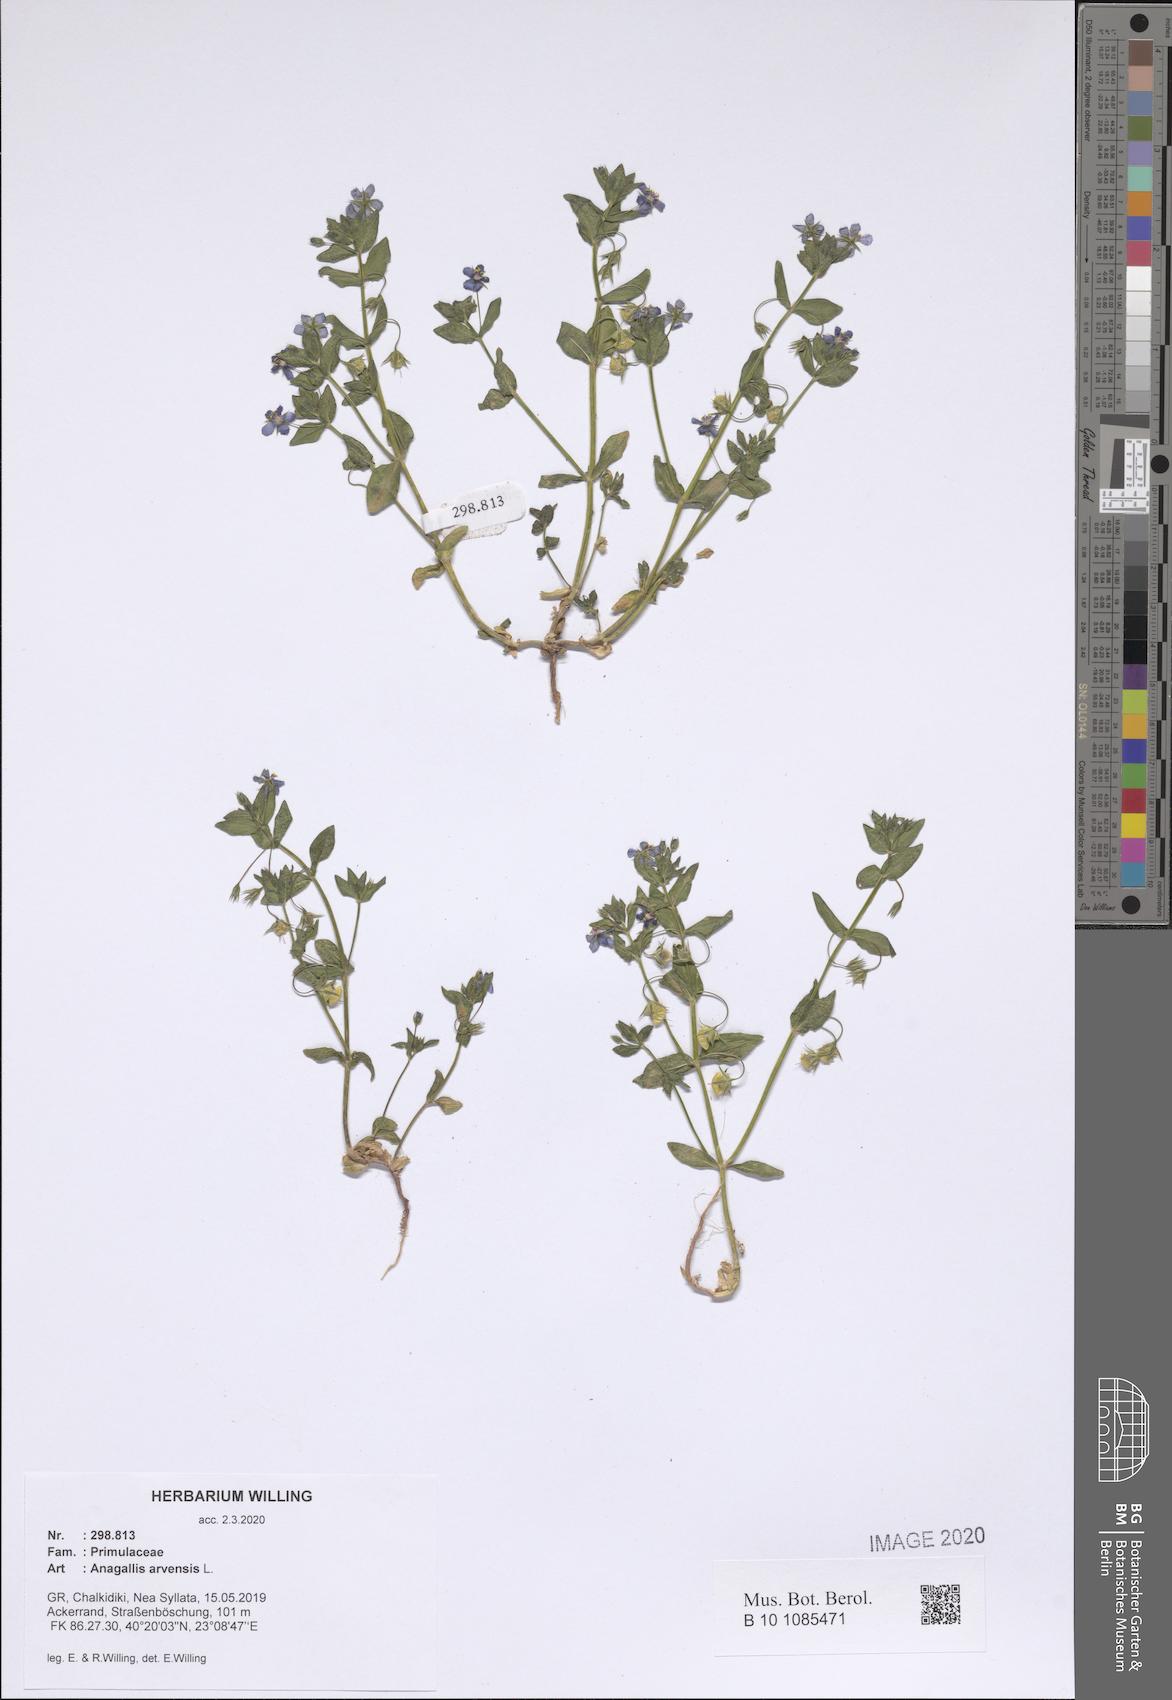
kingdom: Plantae
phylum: Tracheophyta
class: Magnoliopsida
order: Ericales
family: Primulaceae
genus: Lysimachia
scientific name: Lysimachia arvensis
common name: Scarlet pimpernel
